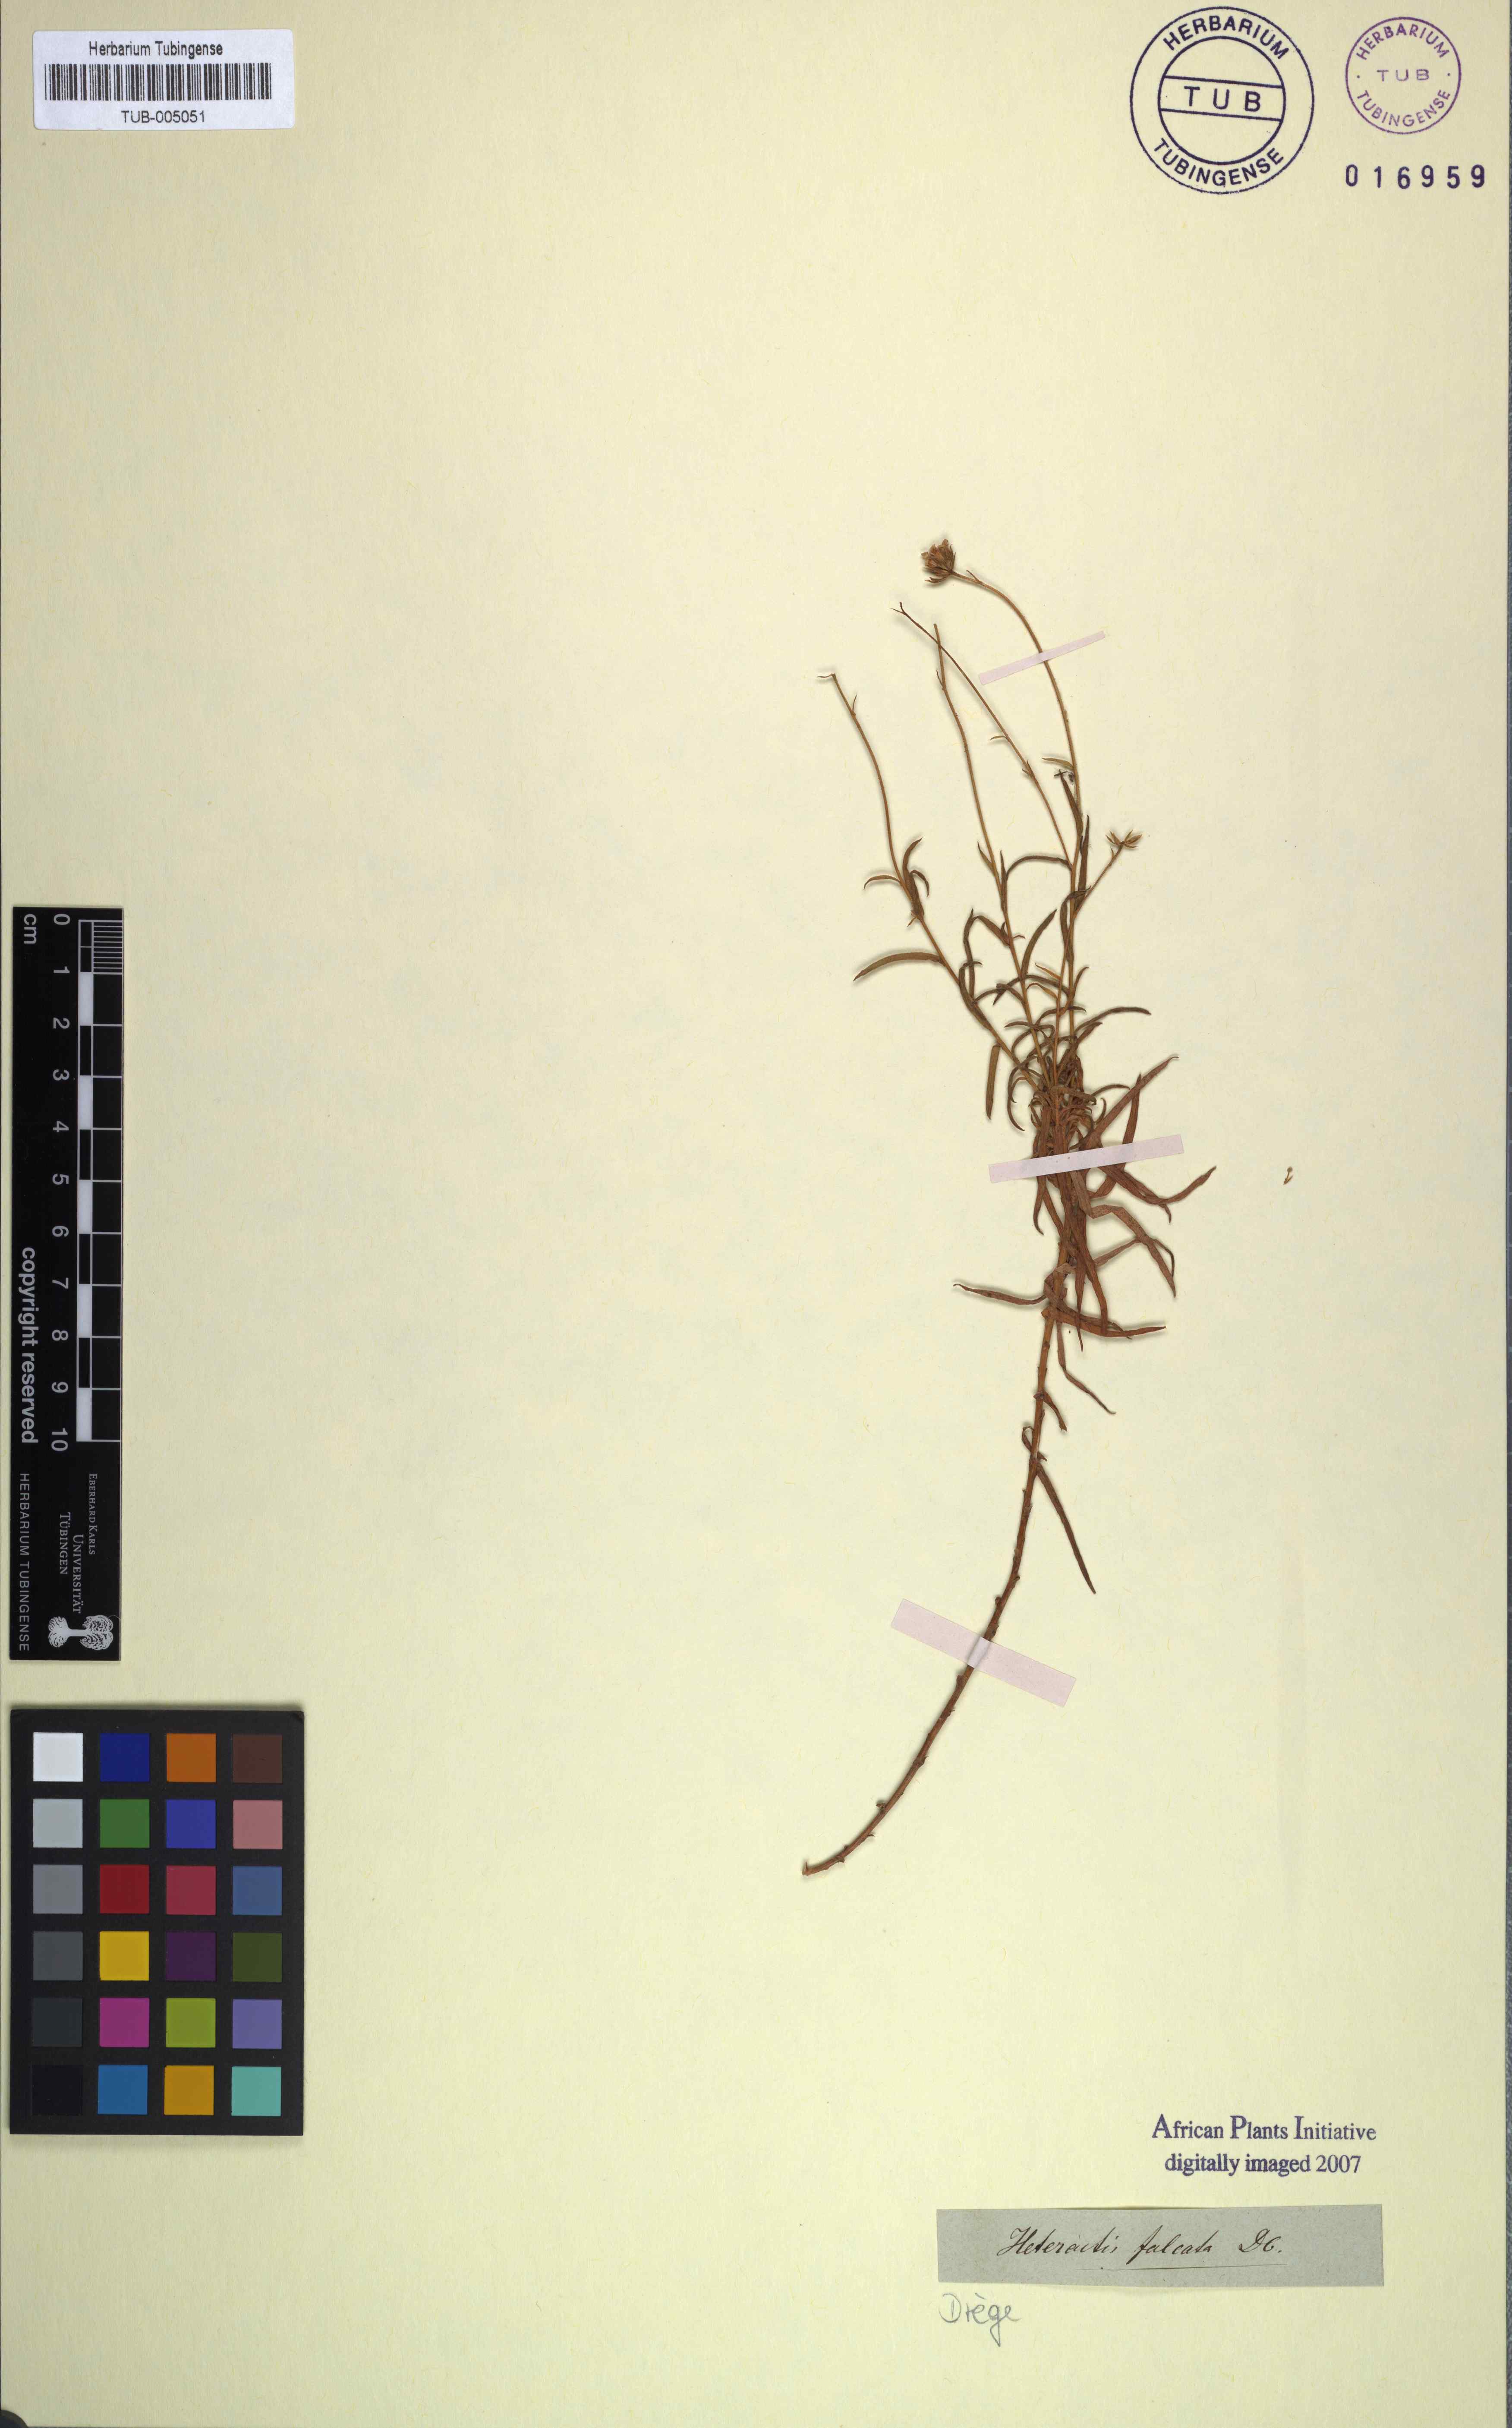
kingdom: Plantae
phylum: Tracheophyta
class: Magnoliopsida
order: Asterales
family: Asteraceae
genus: Zyrphelis
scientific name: Zyrphelis ciliaris
